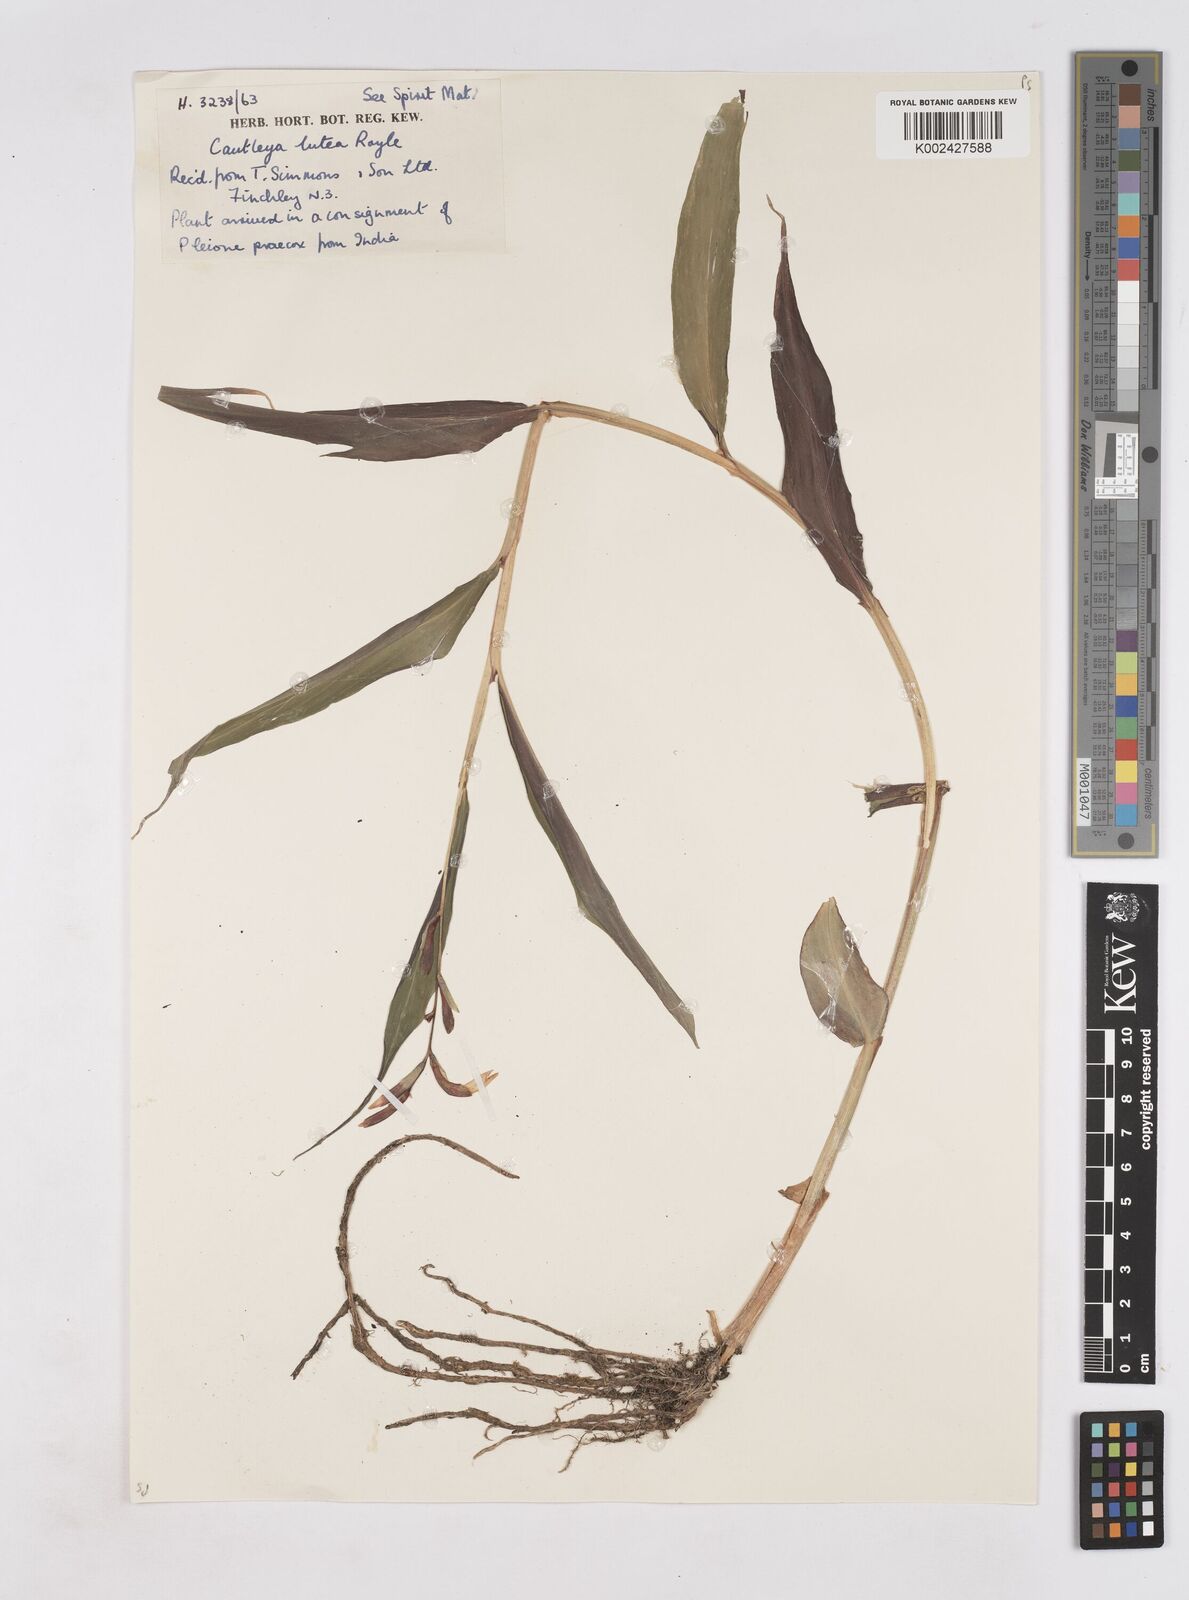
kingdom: Plantae
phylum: Tracheophyta
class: Liliopsida
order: Zingiberales
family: Zingiberaceae
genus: Cautleya
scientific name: Cautleya gracilis
